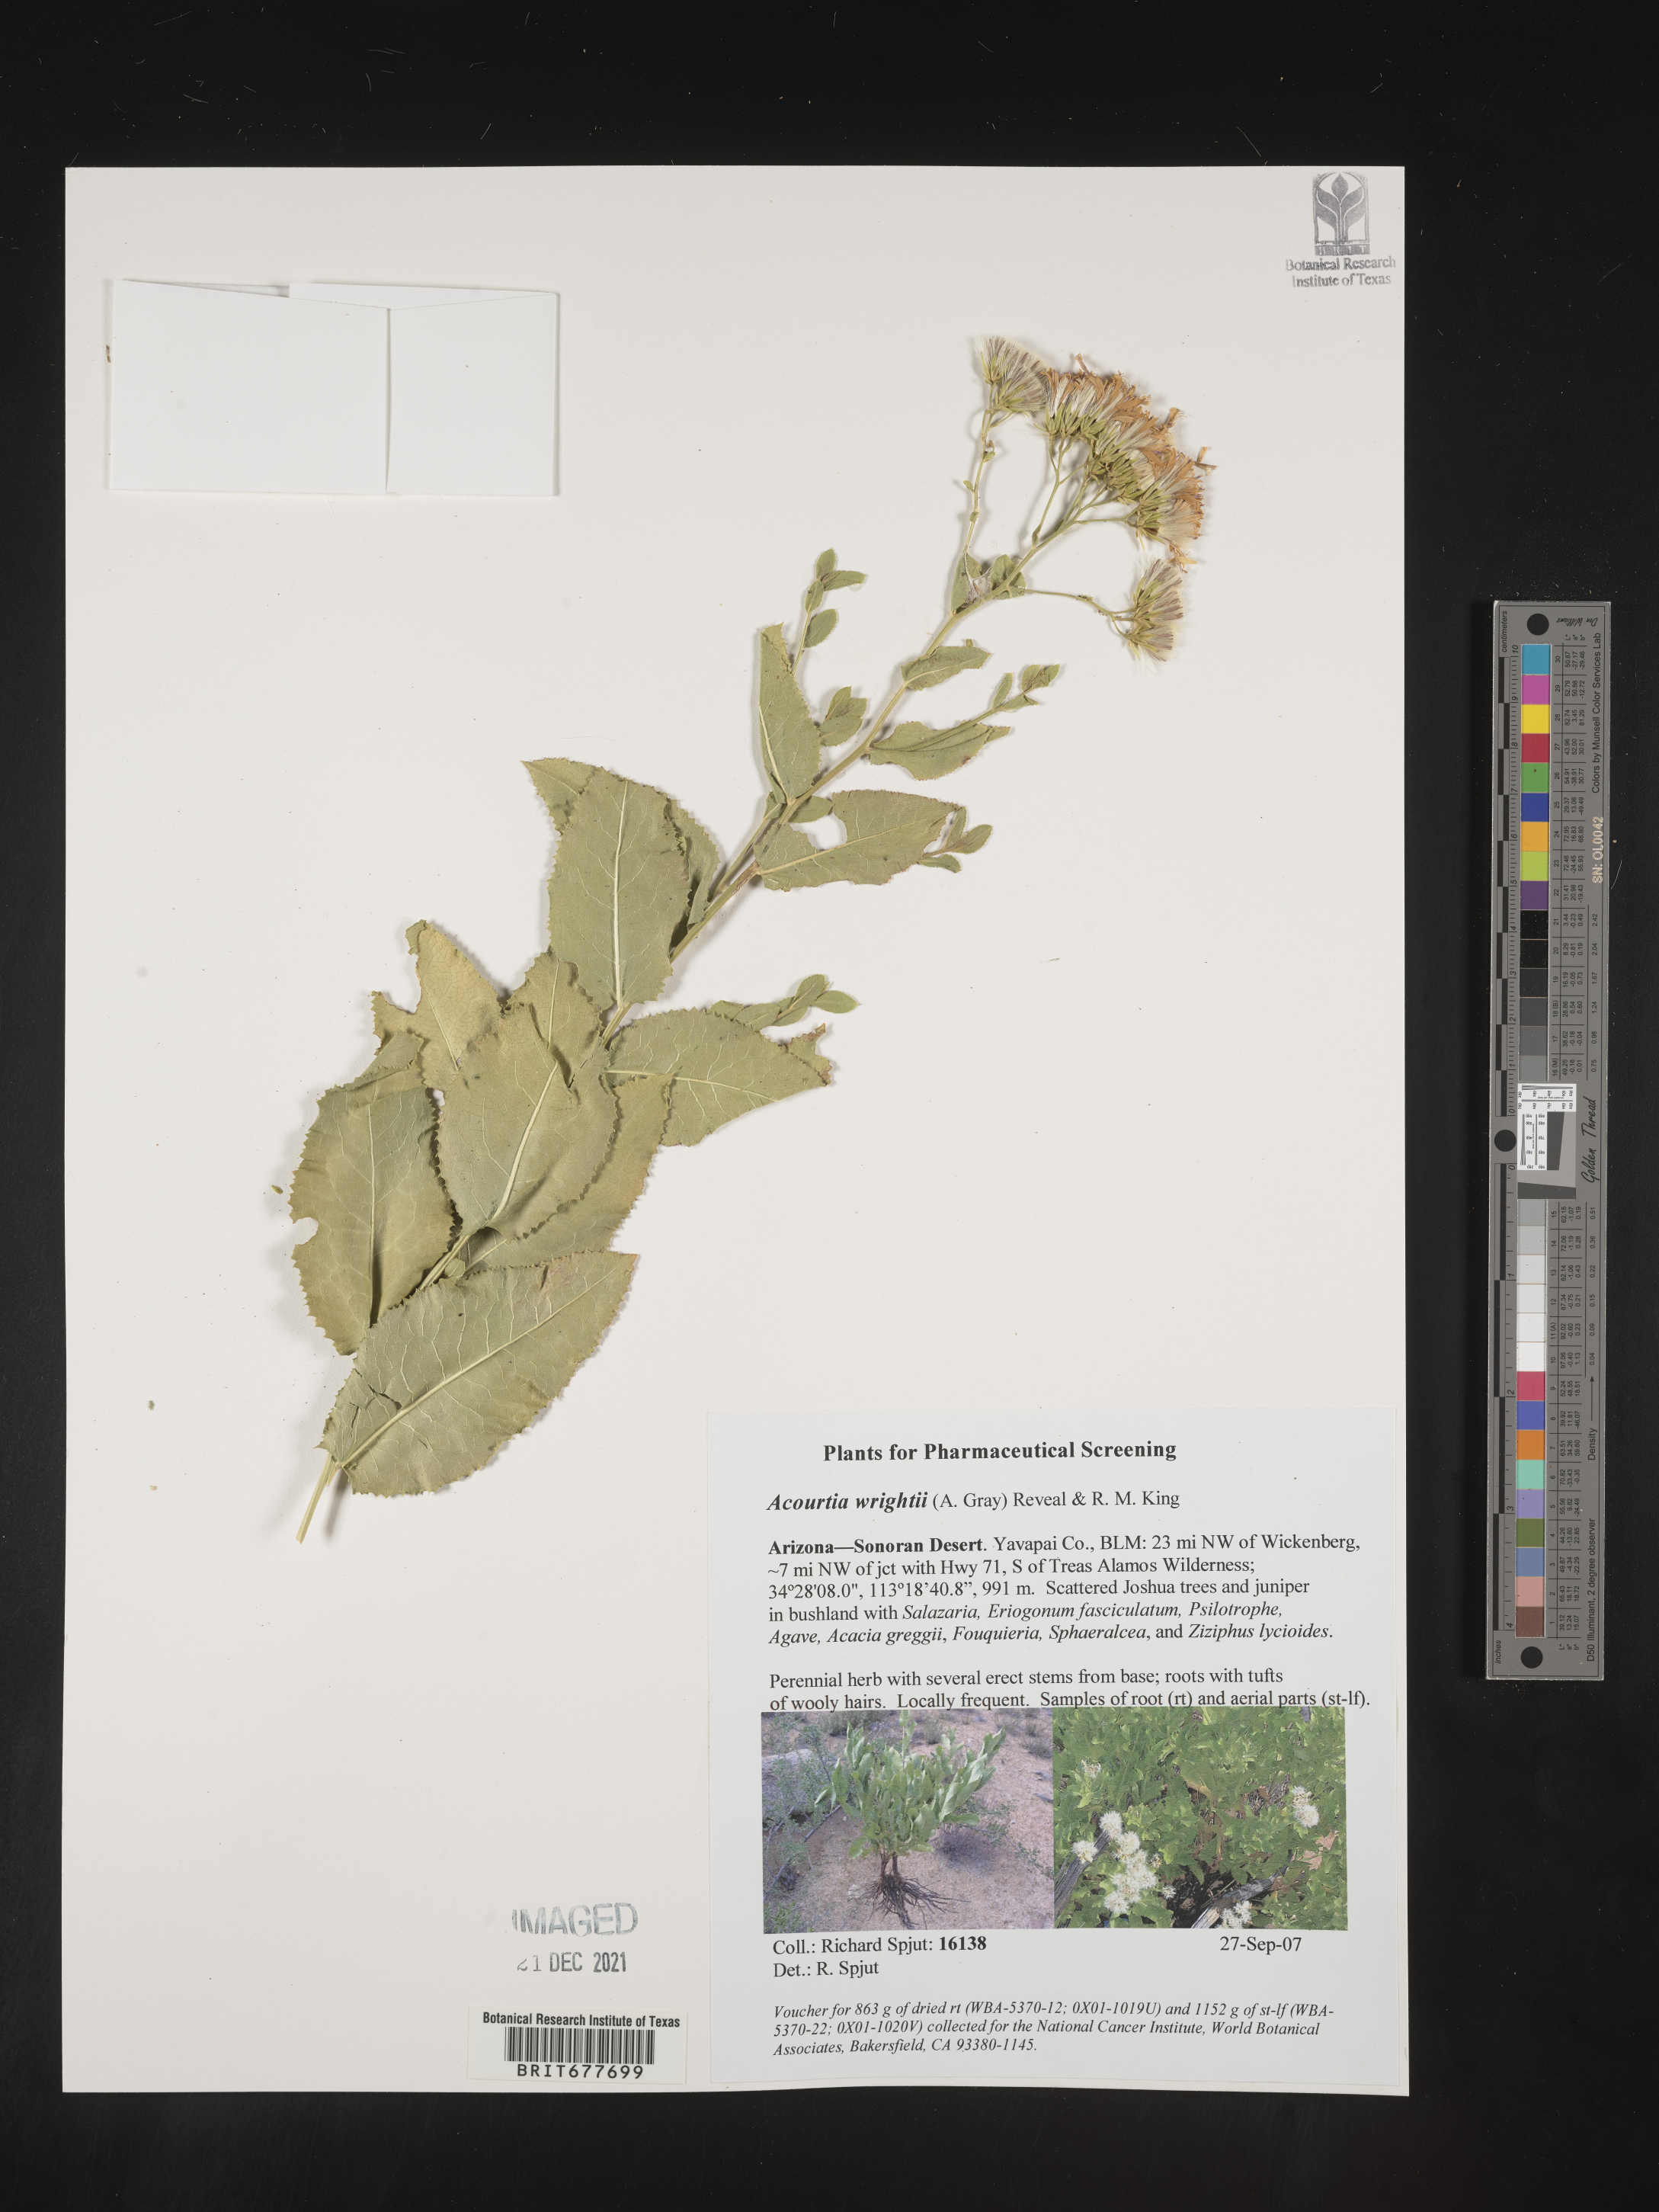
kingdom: Plantae
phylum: Tracheophyta
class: Magnoliopsida
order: Asterales
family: Asteraceae
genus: Perezia
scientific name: Perezia
